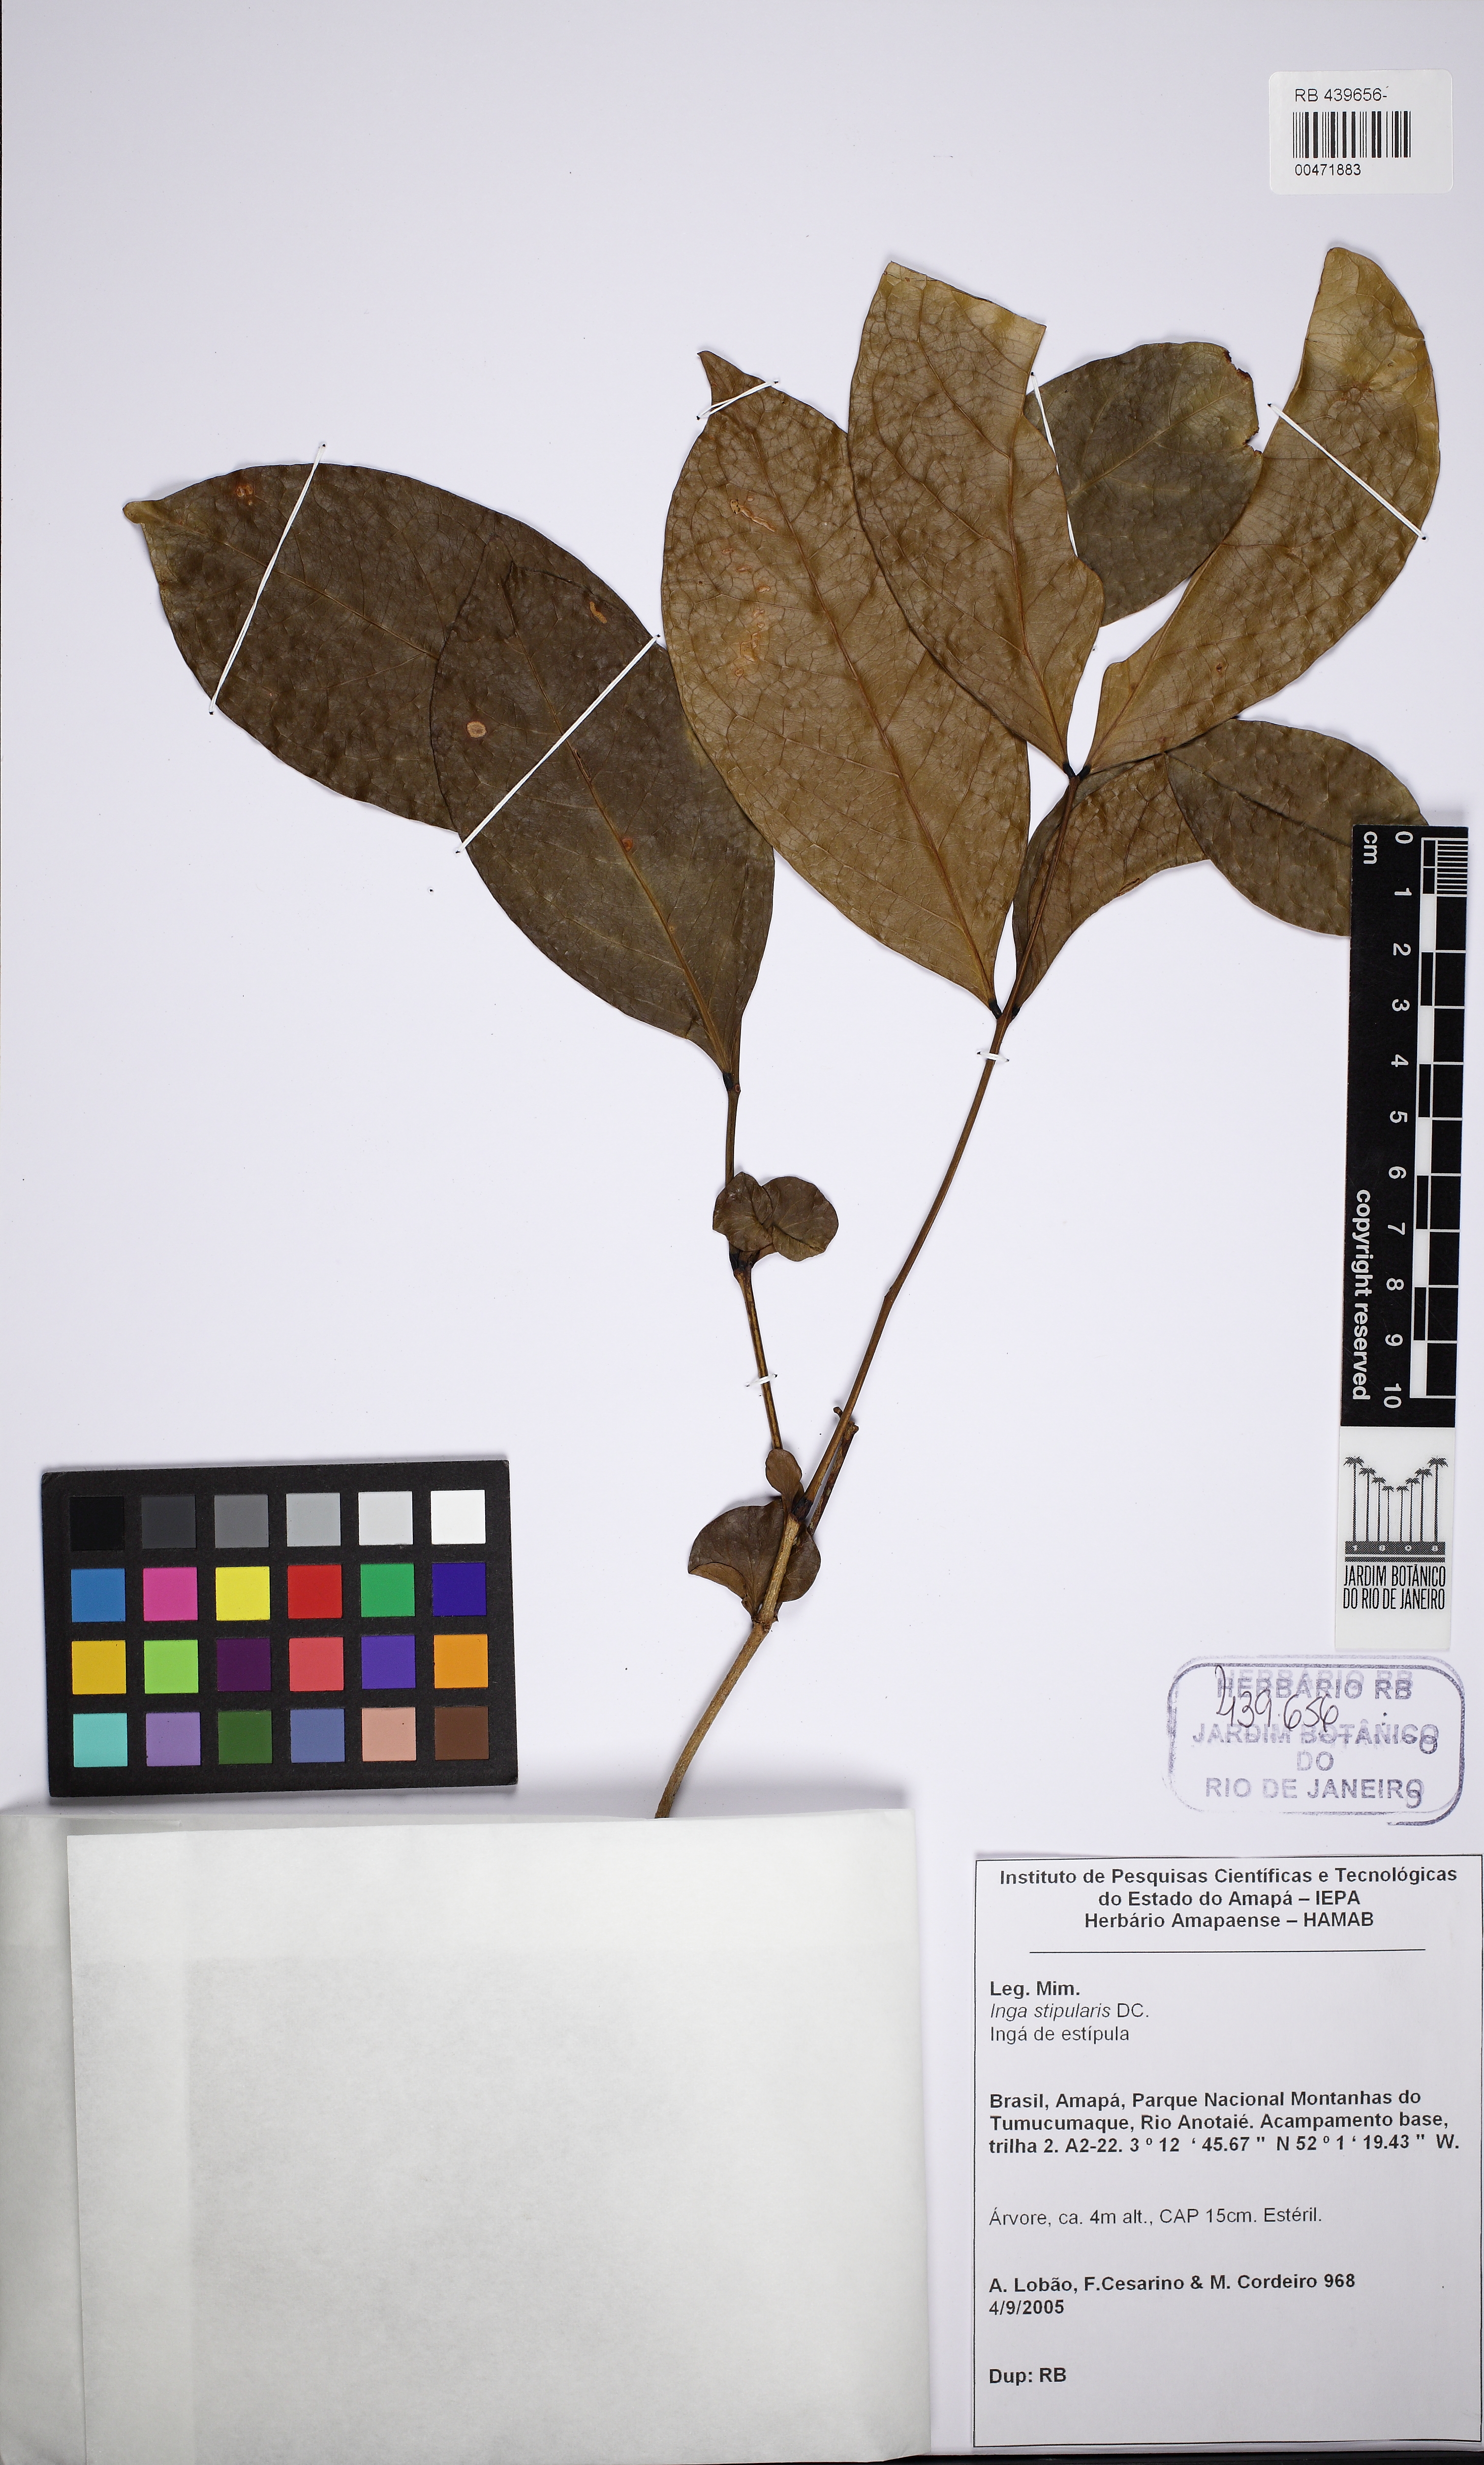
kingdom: Plantae
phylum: Tracheophyta
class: Magnoliopsida
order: Fabales
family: Fabaceae
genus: Inga
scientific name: Inga stipularis
